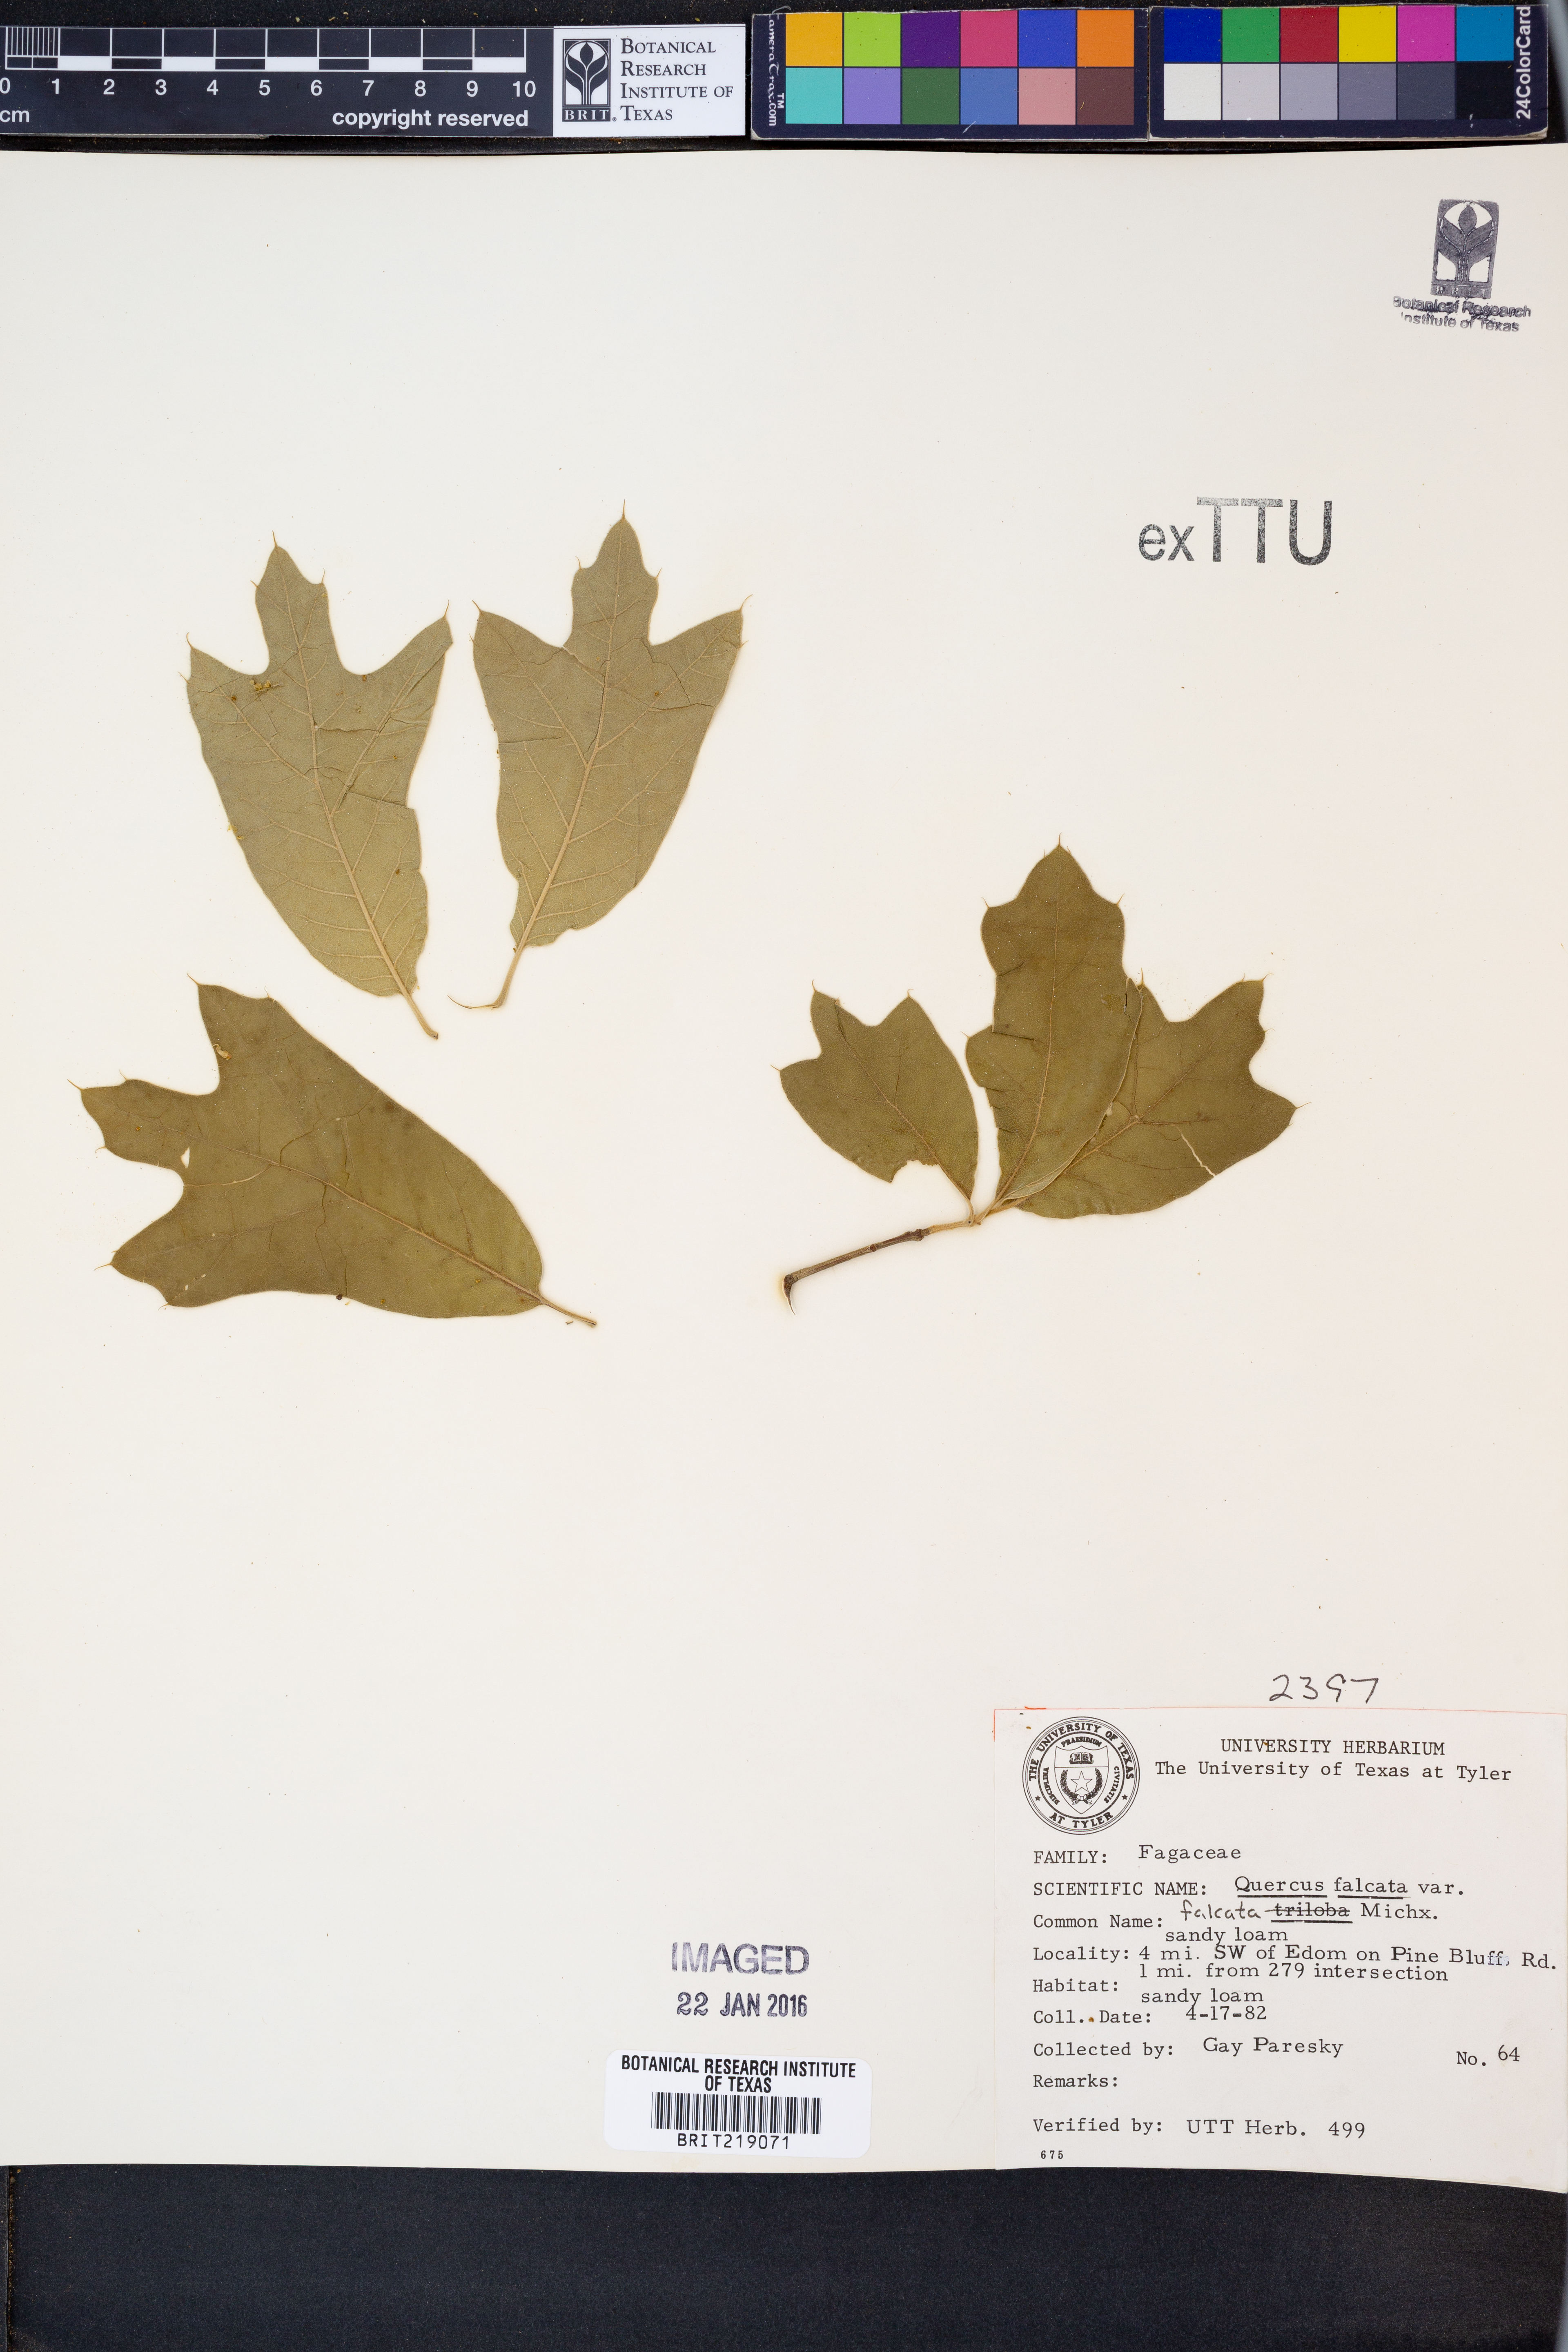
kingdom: Plantae
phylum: Tracheophyta
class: Magnoliopsida
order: Fagales
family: Fagaceae
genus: Quercus
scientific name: Quercus falcata
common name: Southern red oak
